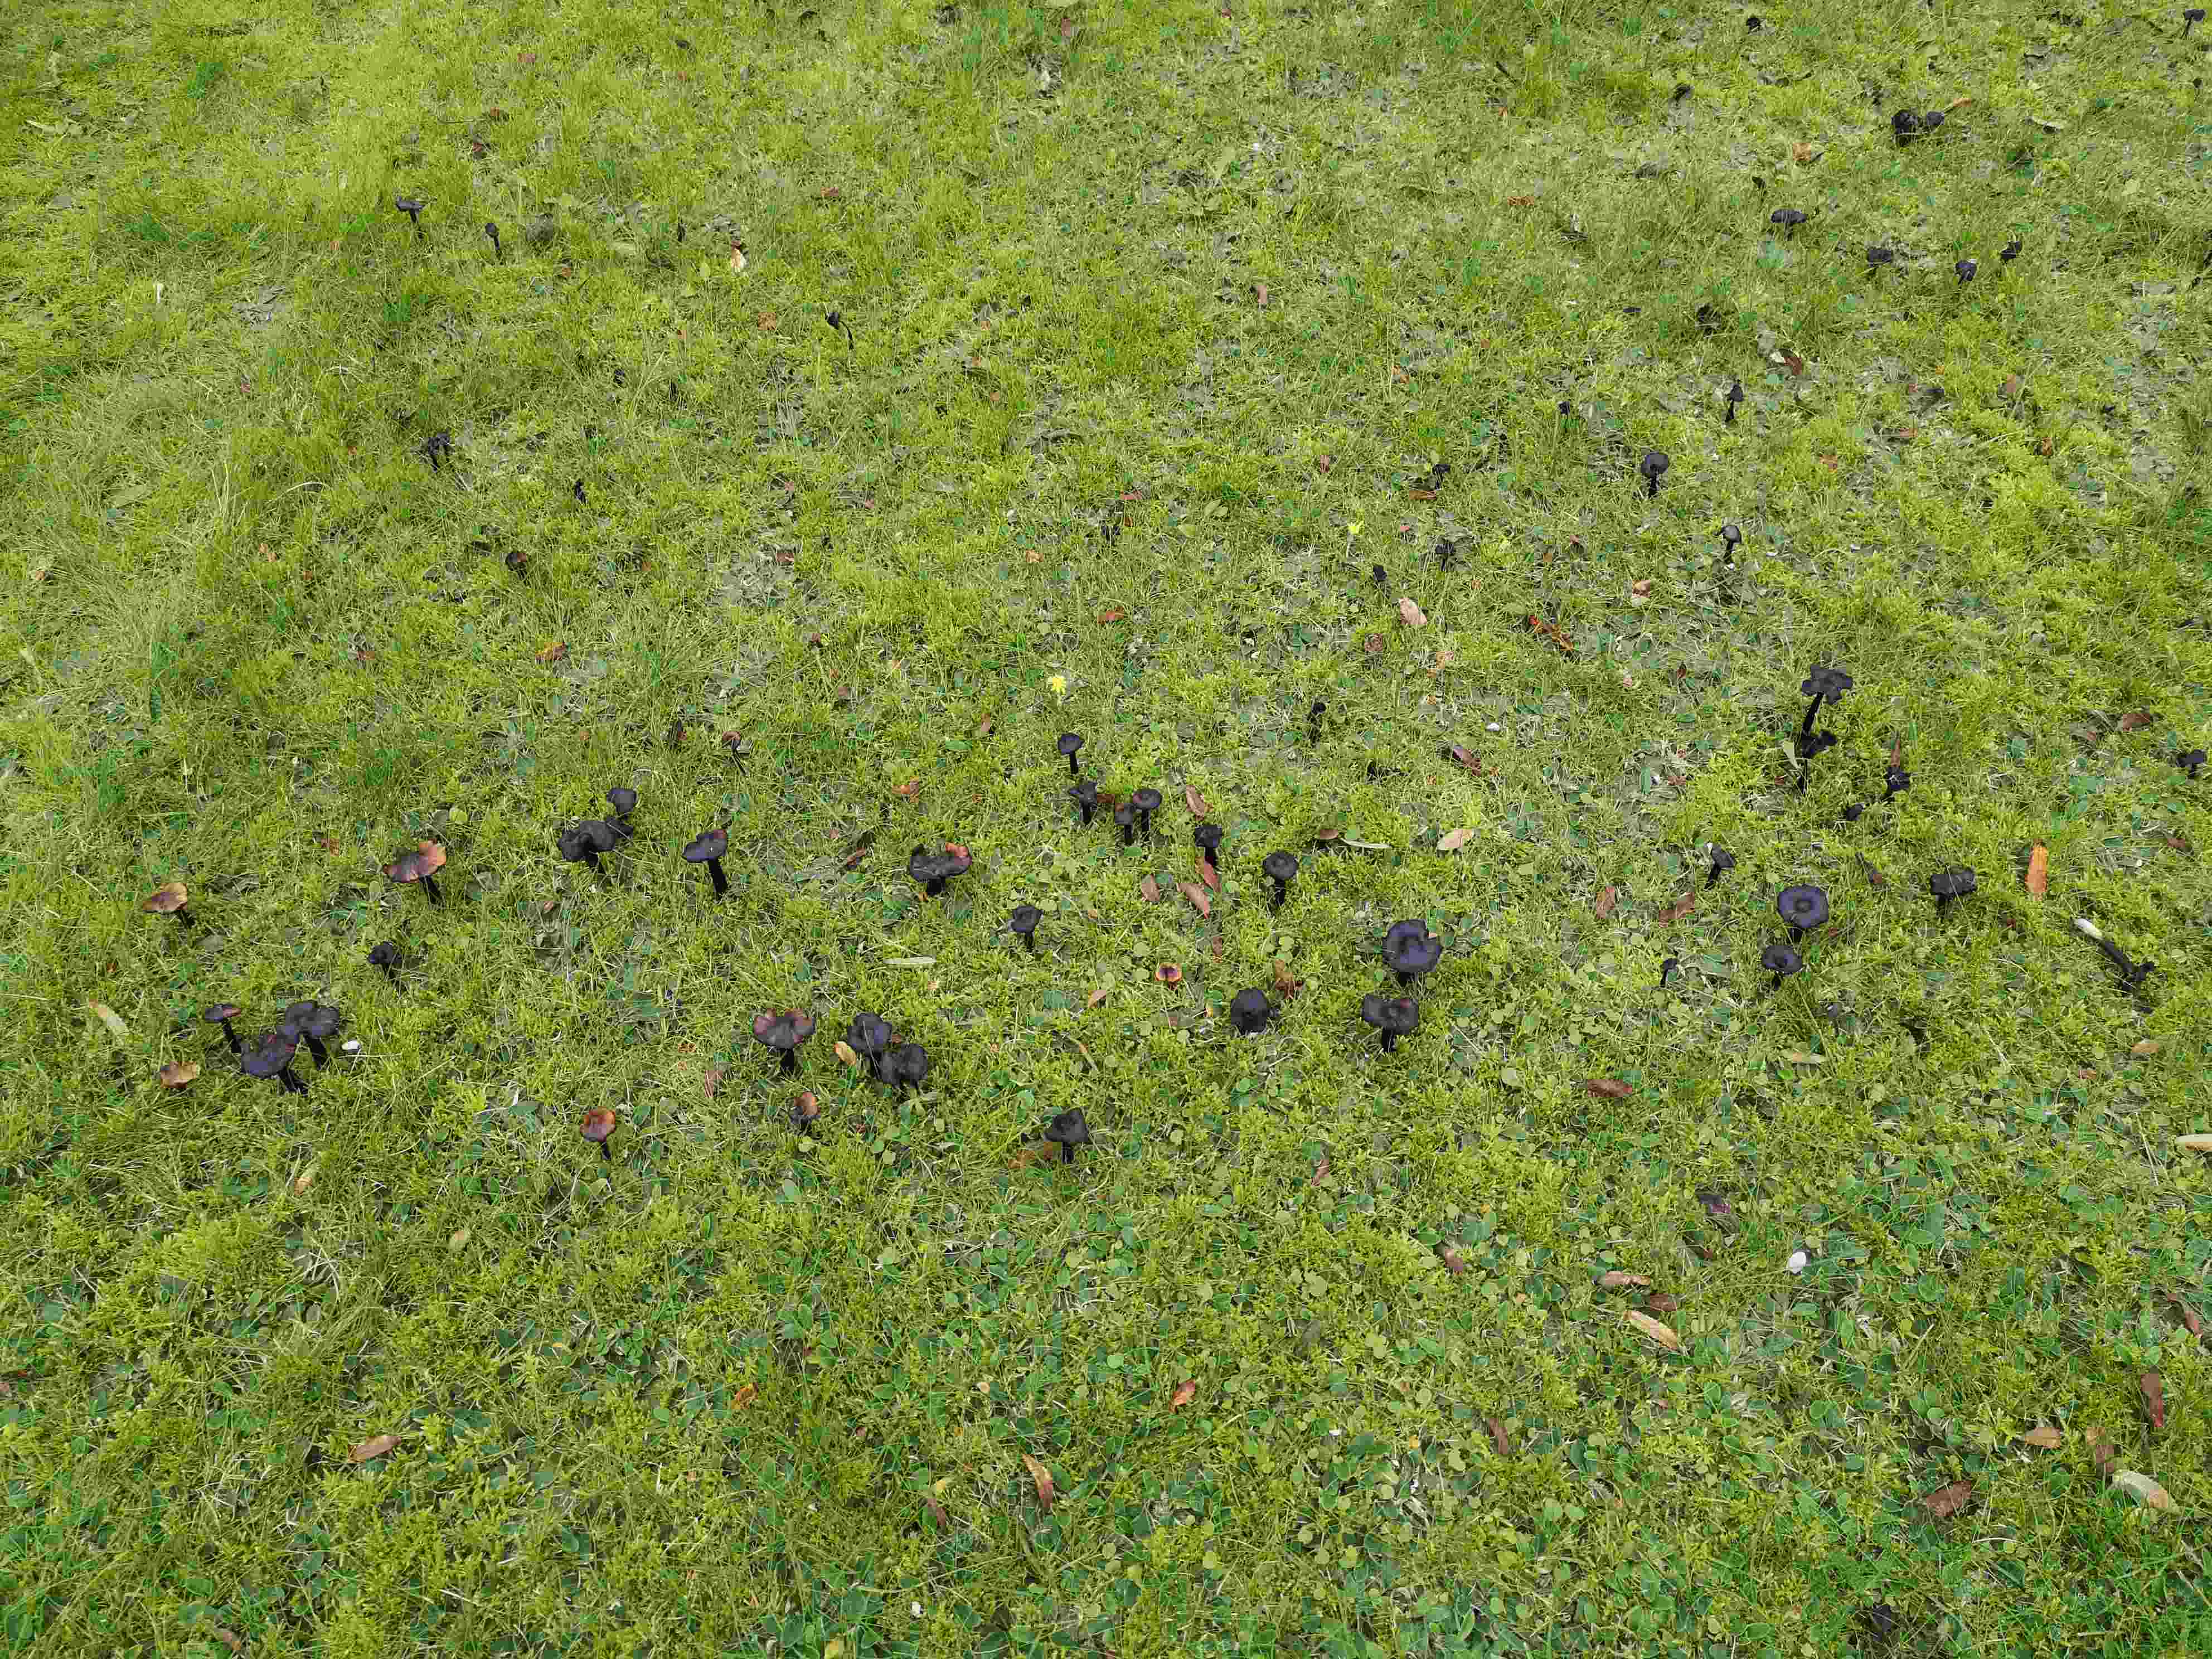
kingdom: Fungi
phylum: Basidiomycota
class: Agaricomycetes
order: Agaricales
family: Hygrophoraceae
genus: Hygrocybe
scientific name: Hygrocybe conica
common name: kegle-vokshat
